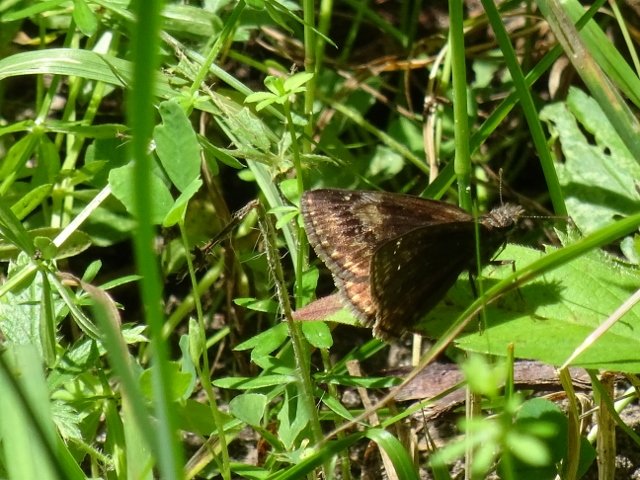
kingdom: Animalia
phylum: Arthropoda
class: Insecta
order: Lepidoptera
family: Hesperiidae
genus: Gesta
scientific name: Gesta
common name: Wild Indigo Duskywing
